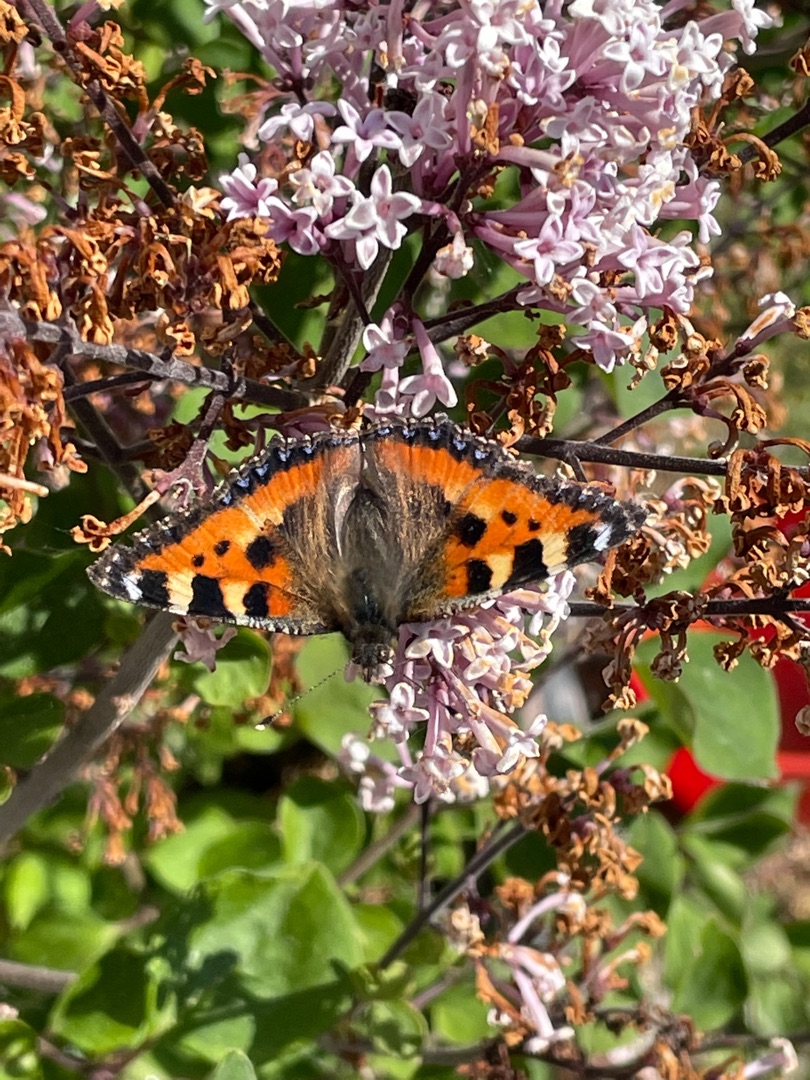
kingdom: Animalia
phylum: Arthropoda
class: Insecta
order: Lepidoptera
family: Nymphalidae
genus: Aglais
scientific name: Aglais urticae
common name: Nældens takvinge
